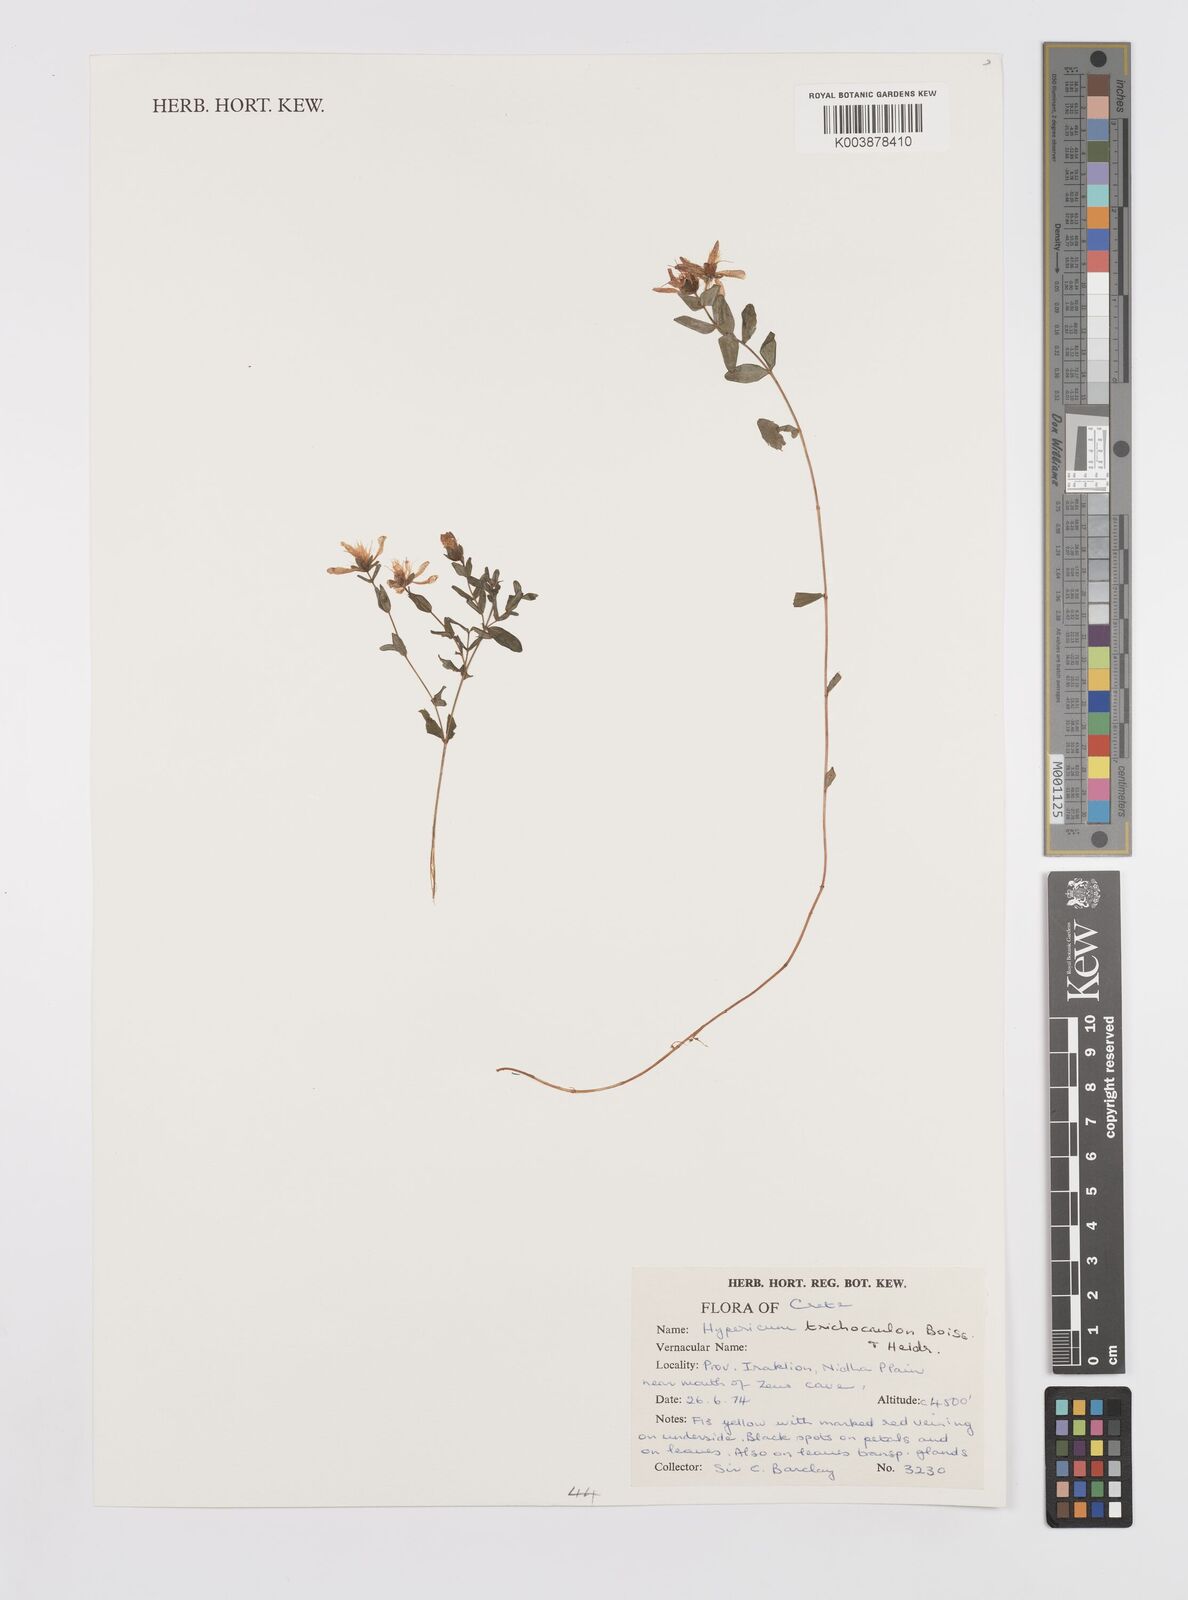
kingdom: Plantae
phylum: Tracheophyta
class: Magnoliopsida
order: Malpighiales
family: Hypericaceae
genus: Hypericum
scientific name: Hypericum trichocaulon
